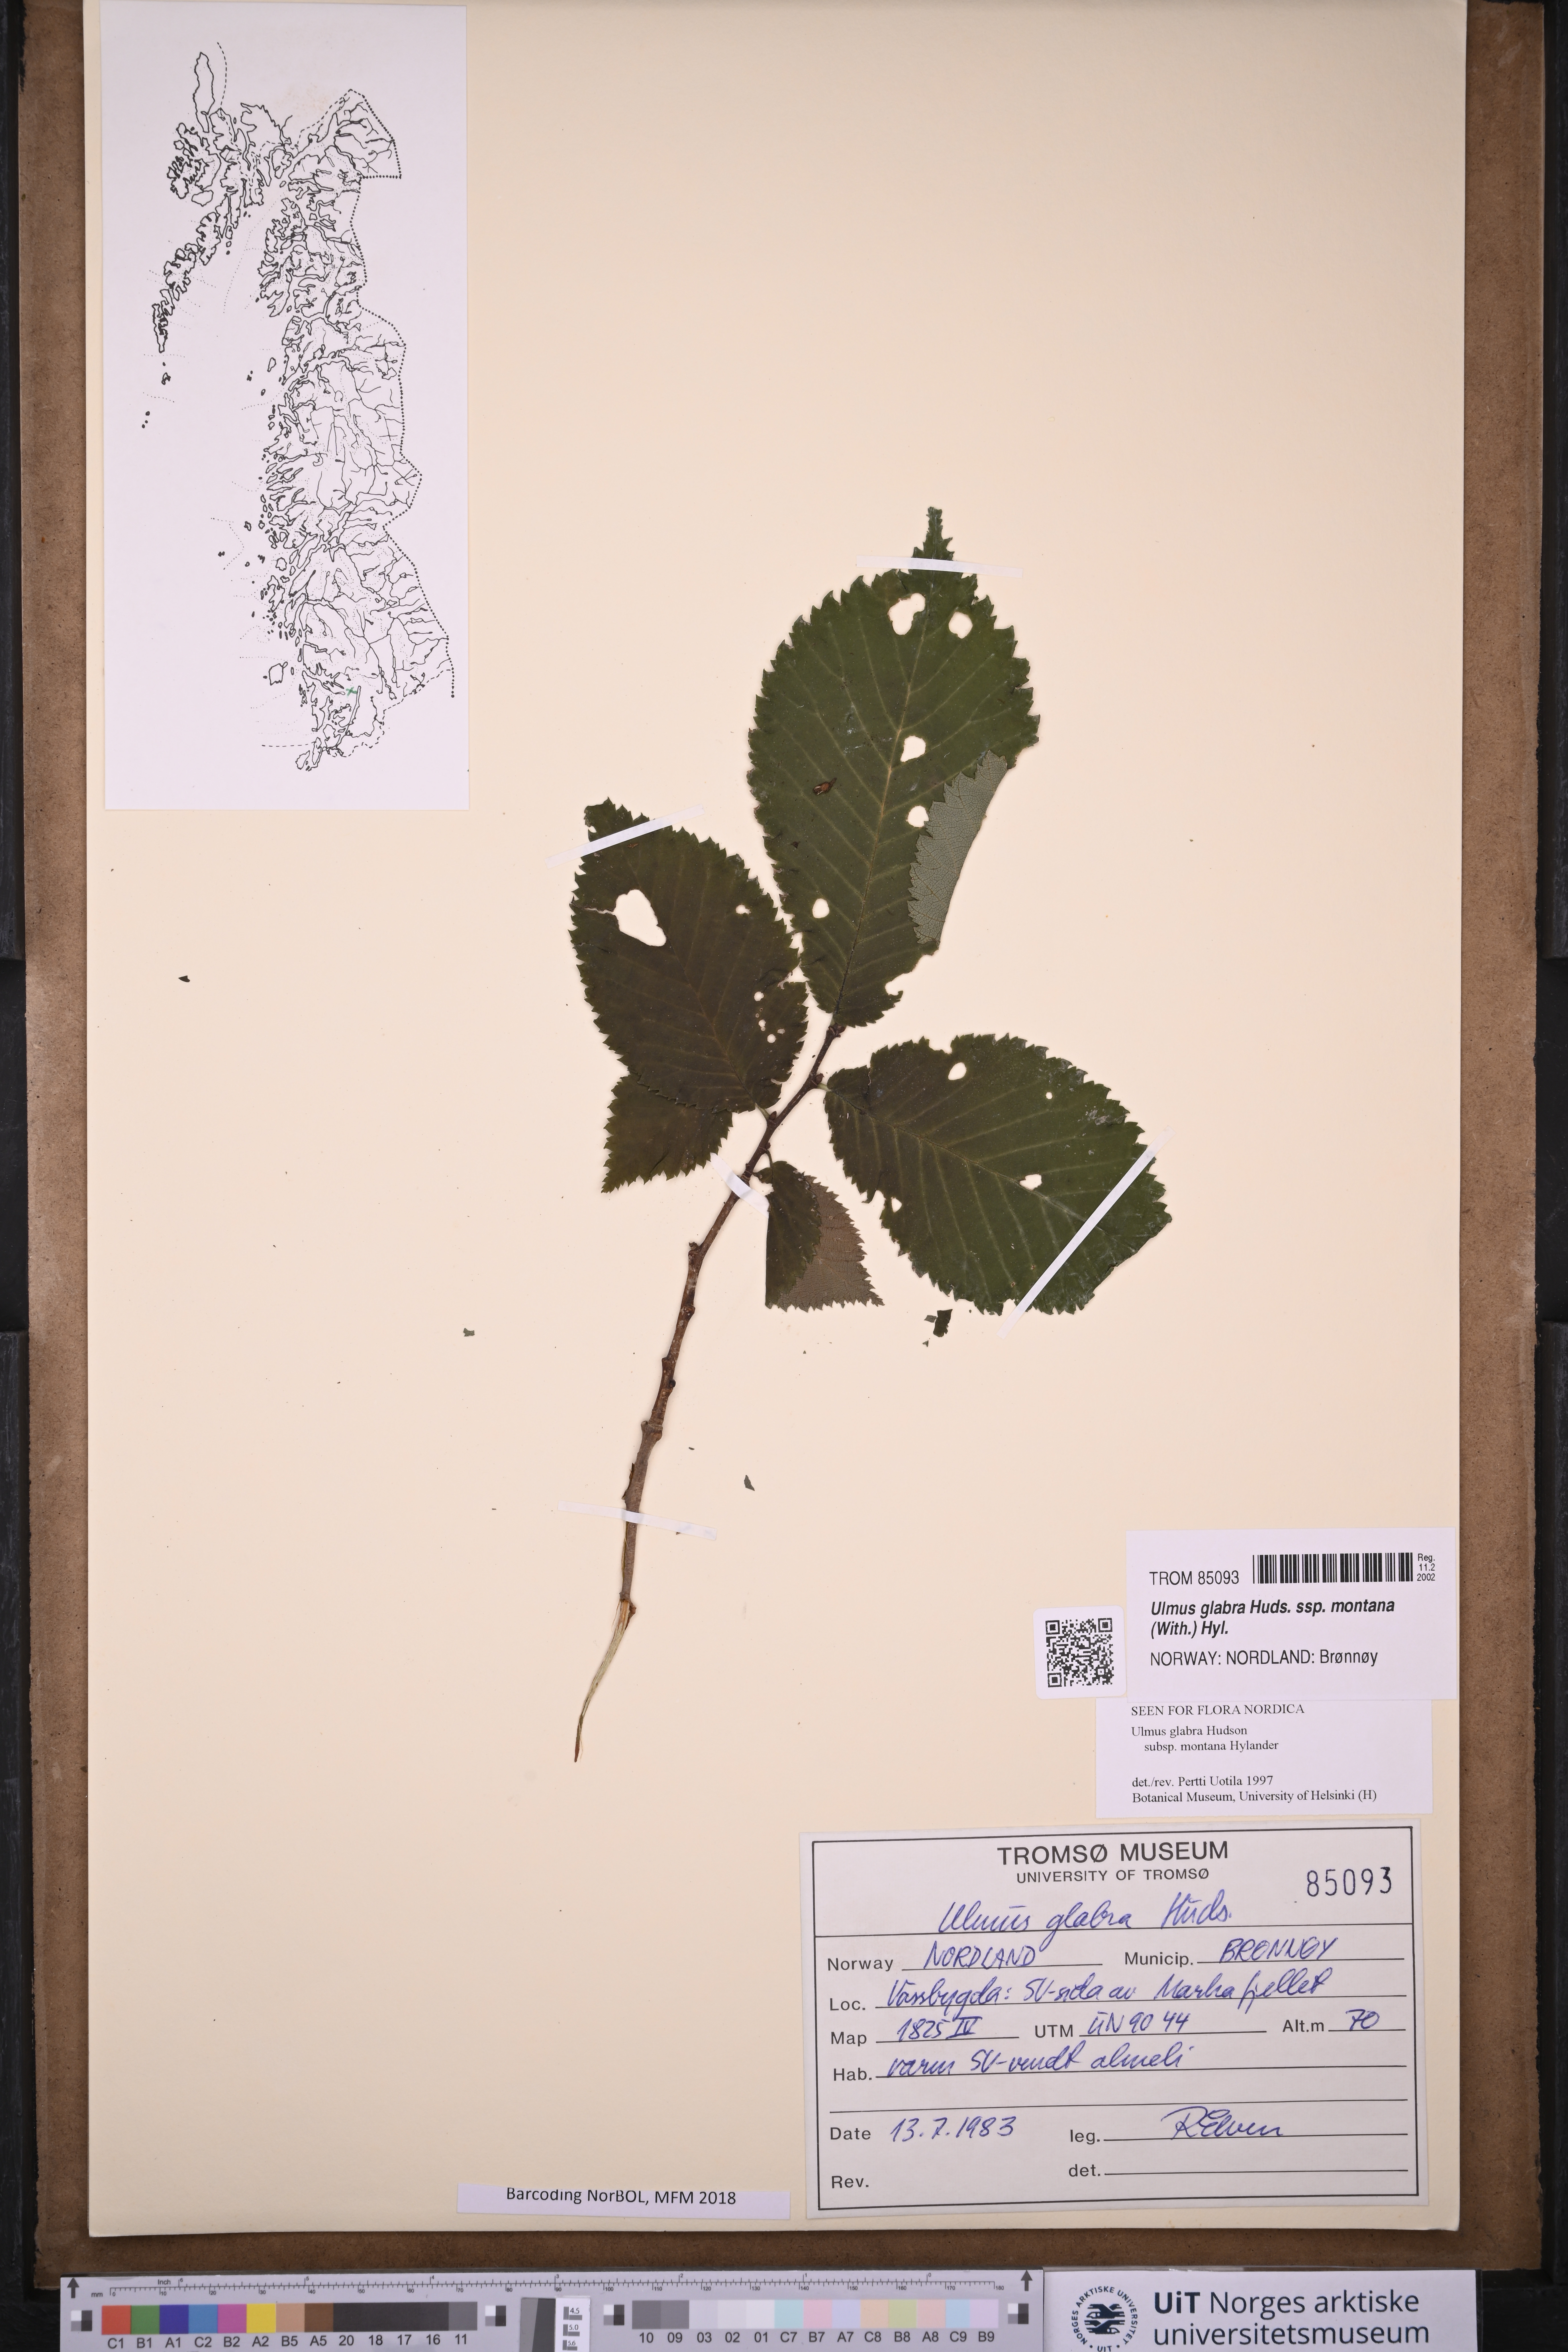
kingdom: Plantae
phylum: Tracheophyta
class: Magnoliopsida
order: Rosales
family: Ulmaceae
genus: Ulmus
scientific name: Ulmus glabra
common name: Wych elm
